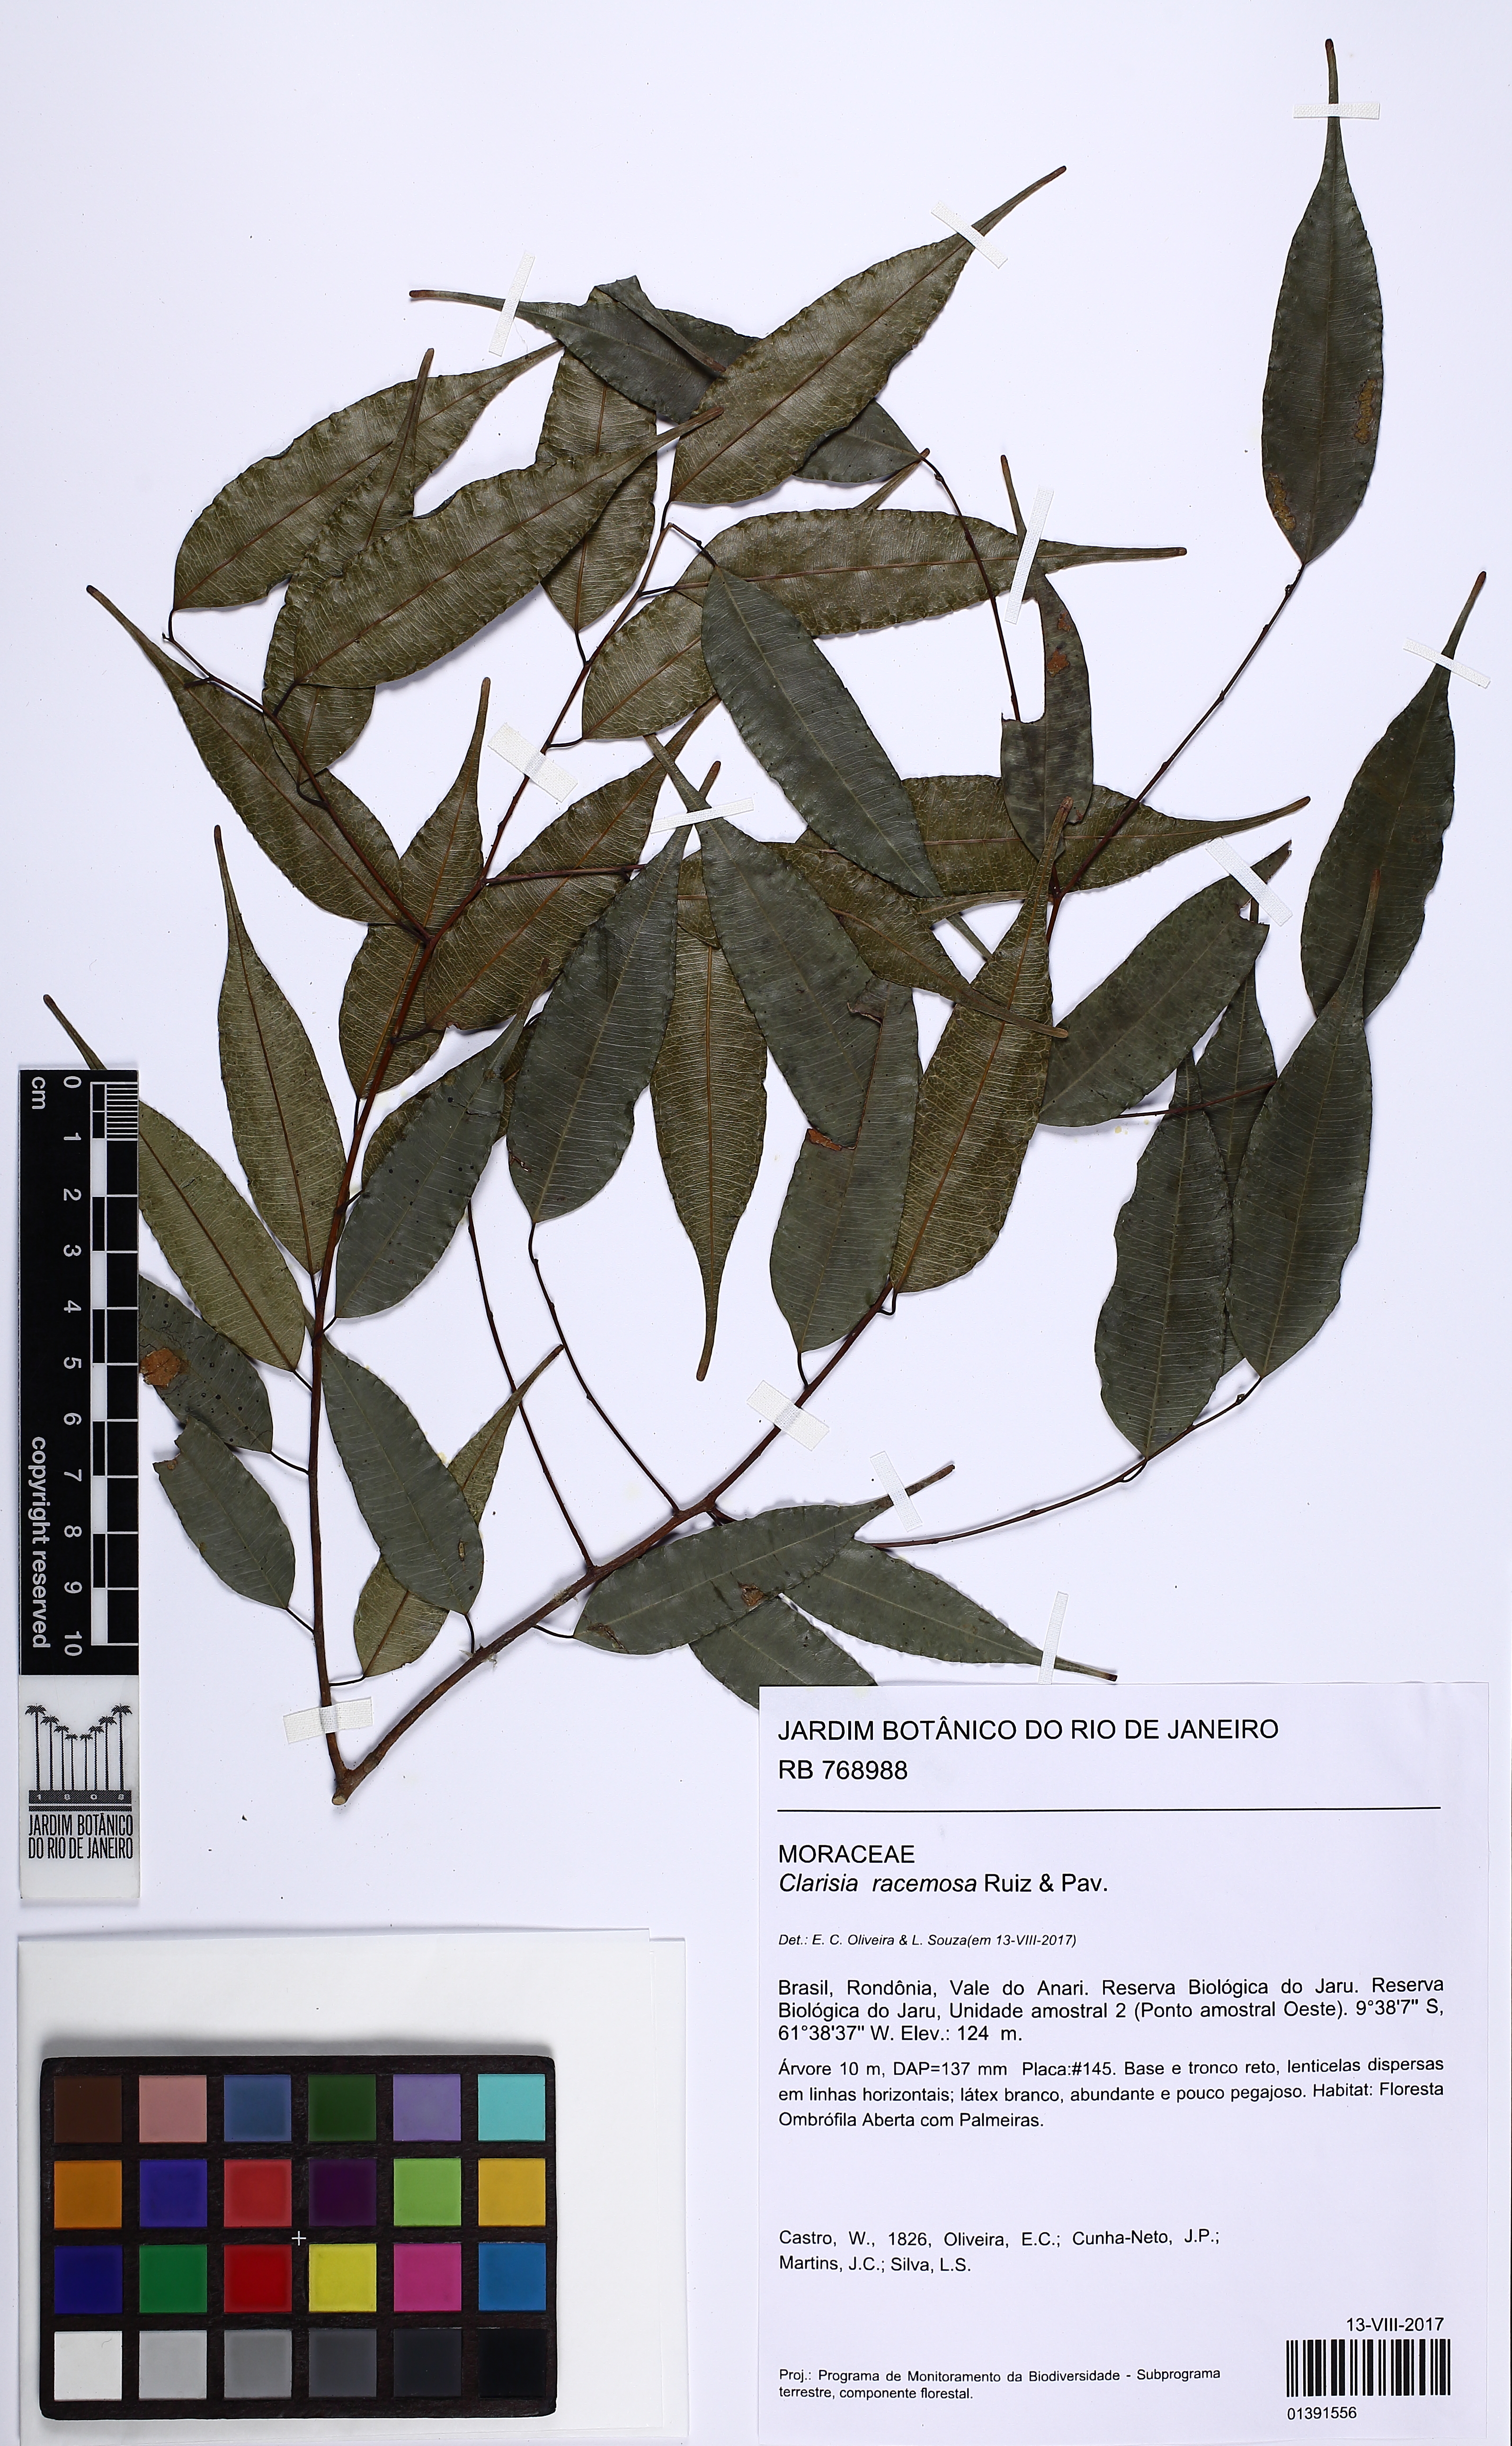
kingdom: Plantae
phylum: Tracheophyta
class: Magnoliopsida
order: Rosales
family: Moraceae
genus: Clarisia
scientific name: Clarisia racemosa
